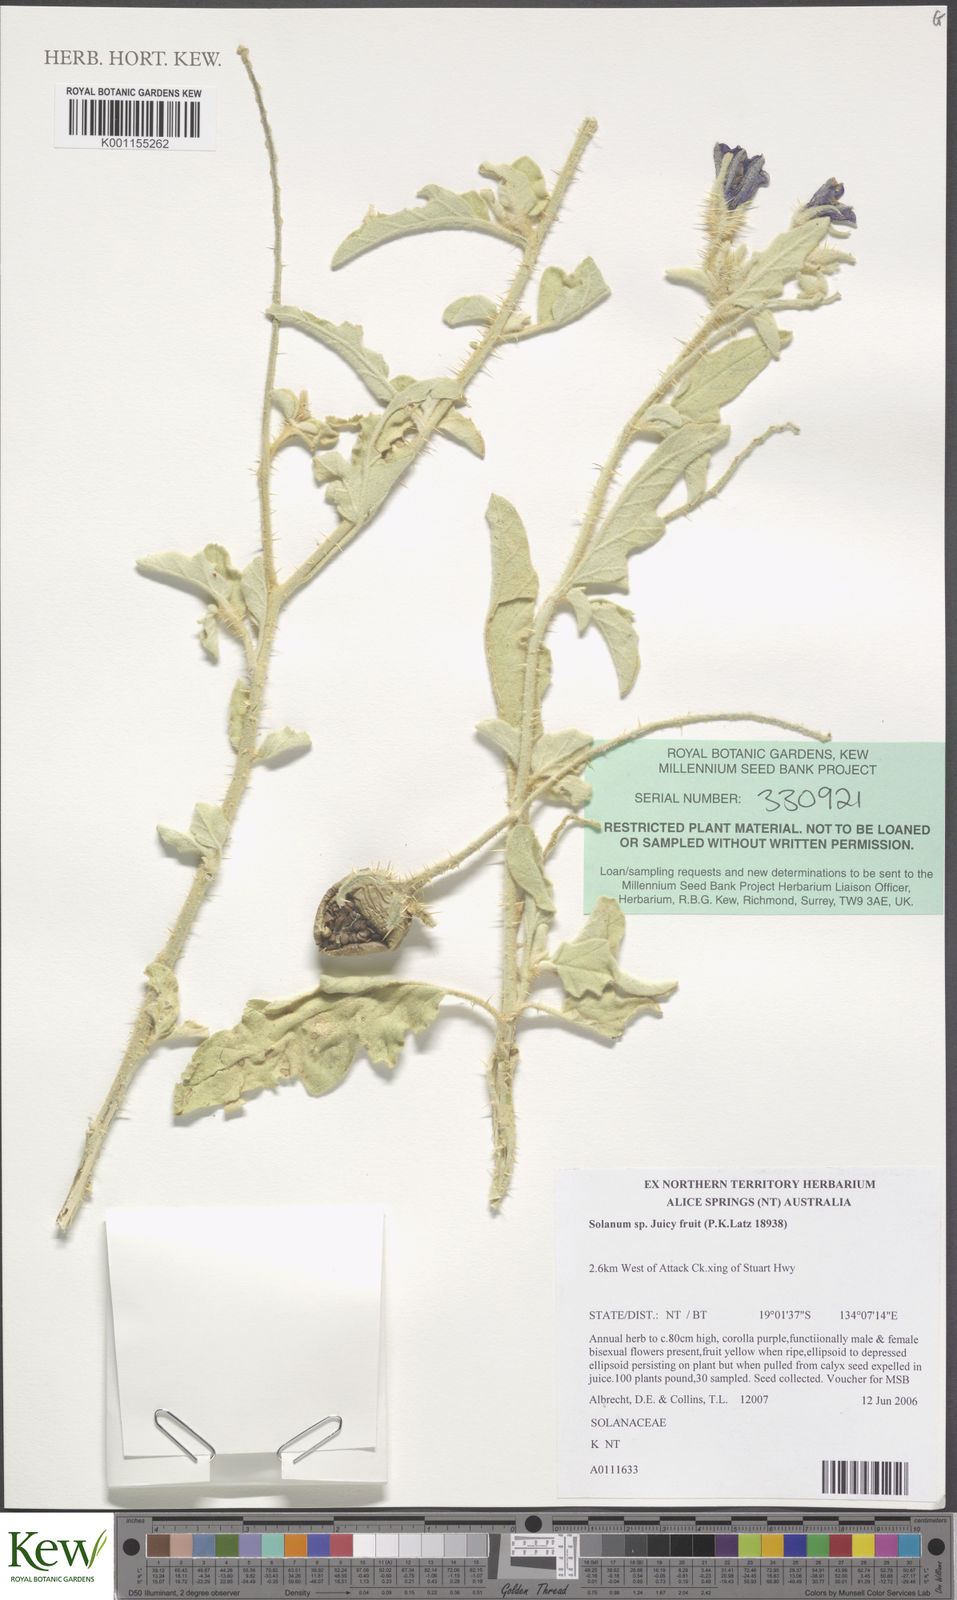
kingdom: Plantae
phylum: Tracheophyta
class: Magnoliopsida
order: Solanales
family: Solanaceae
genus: Solanum
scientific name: Solanum
